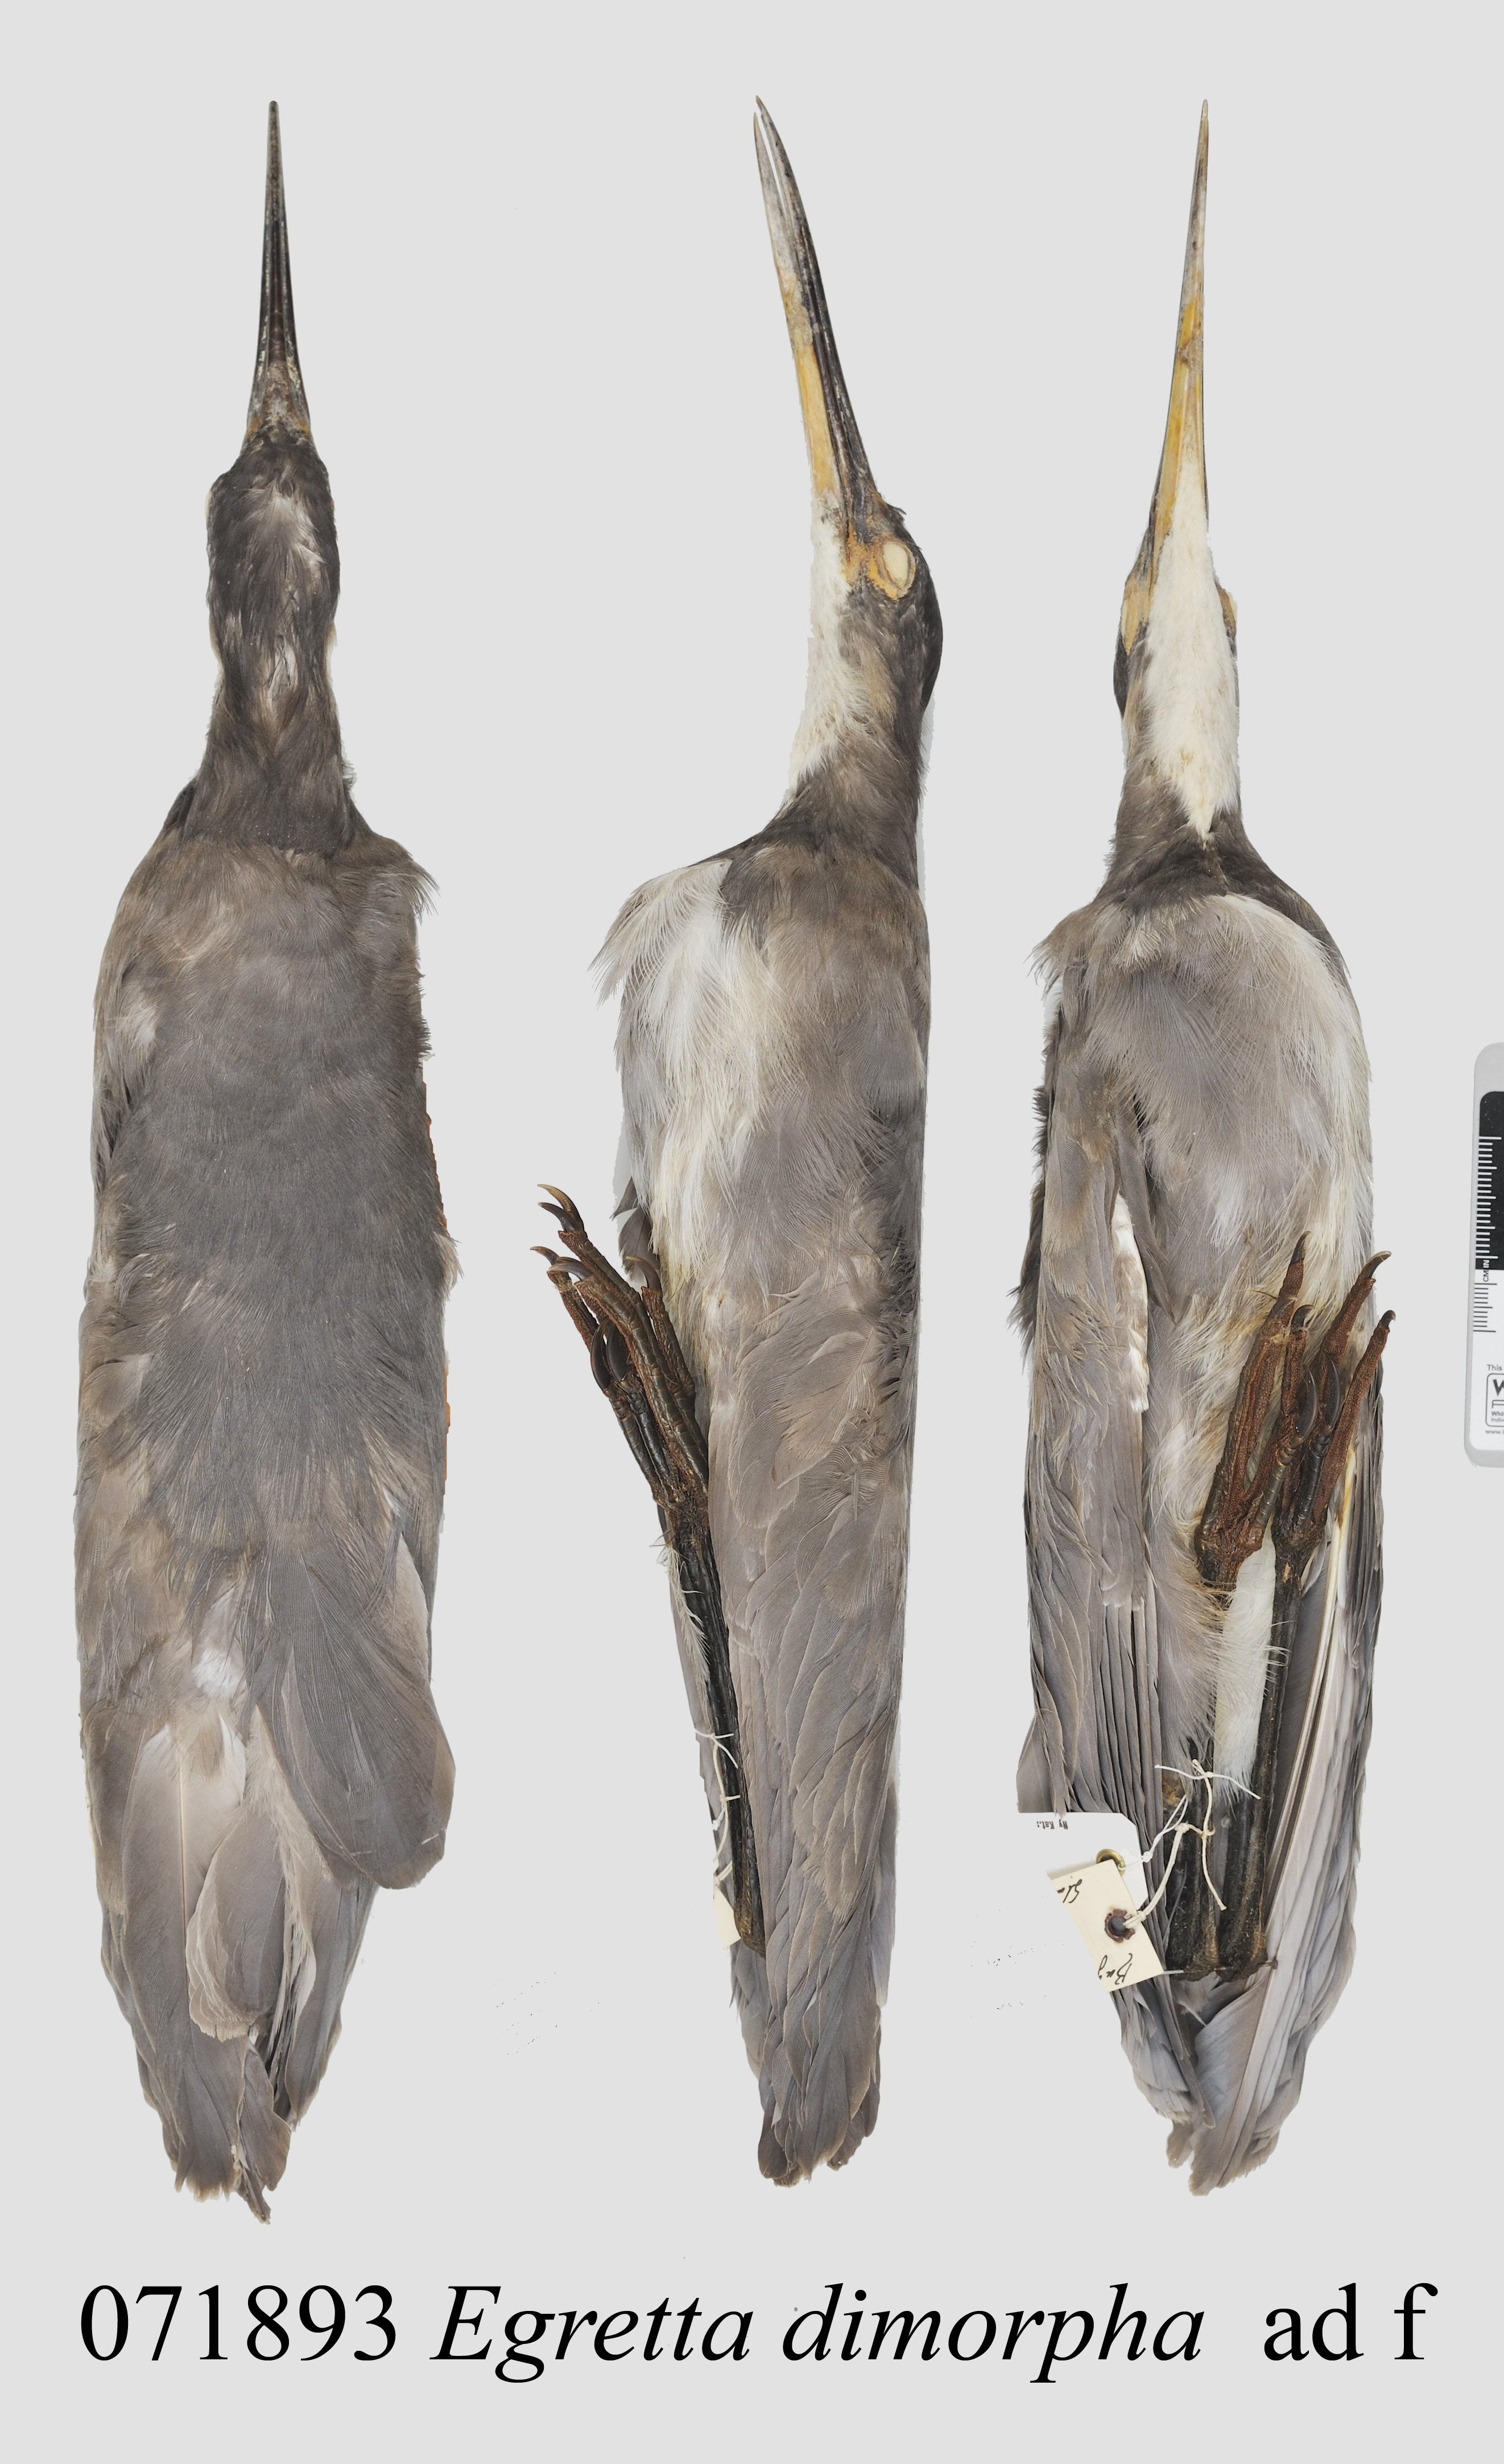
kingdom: Animalia
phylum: Chordata
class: Aves
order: Pelecaniformes
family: Ardeidae
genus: Egretta
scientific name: Egretta dimorpha
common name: Dimorphic egret
